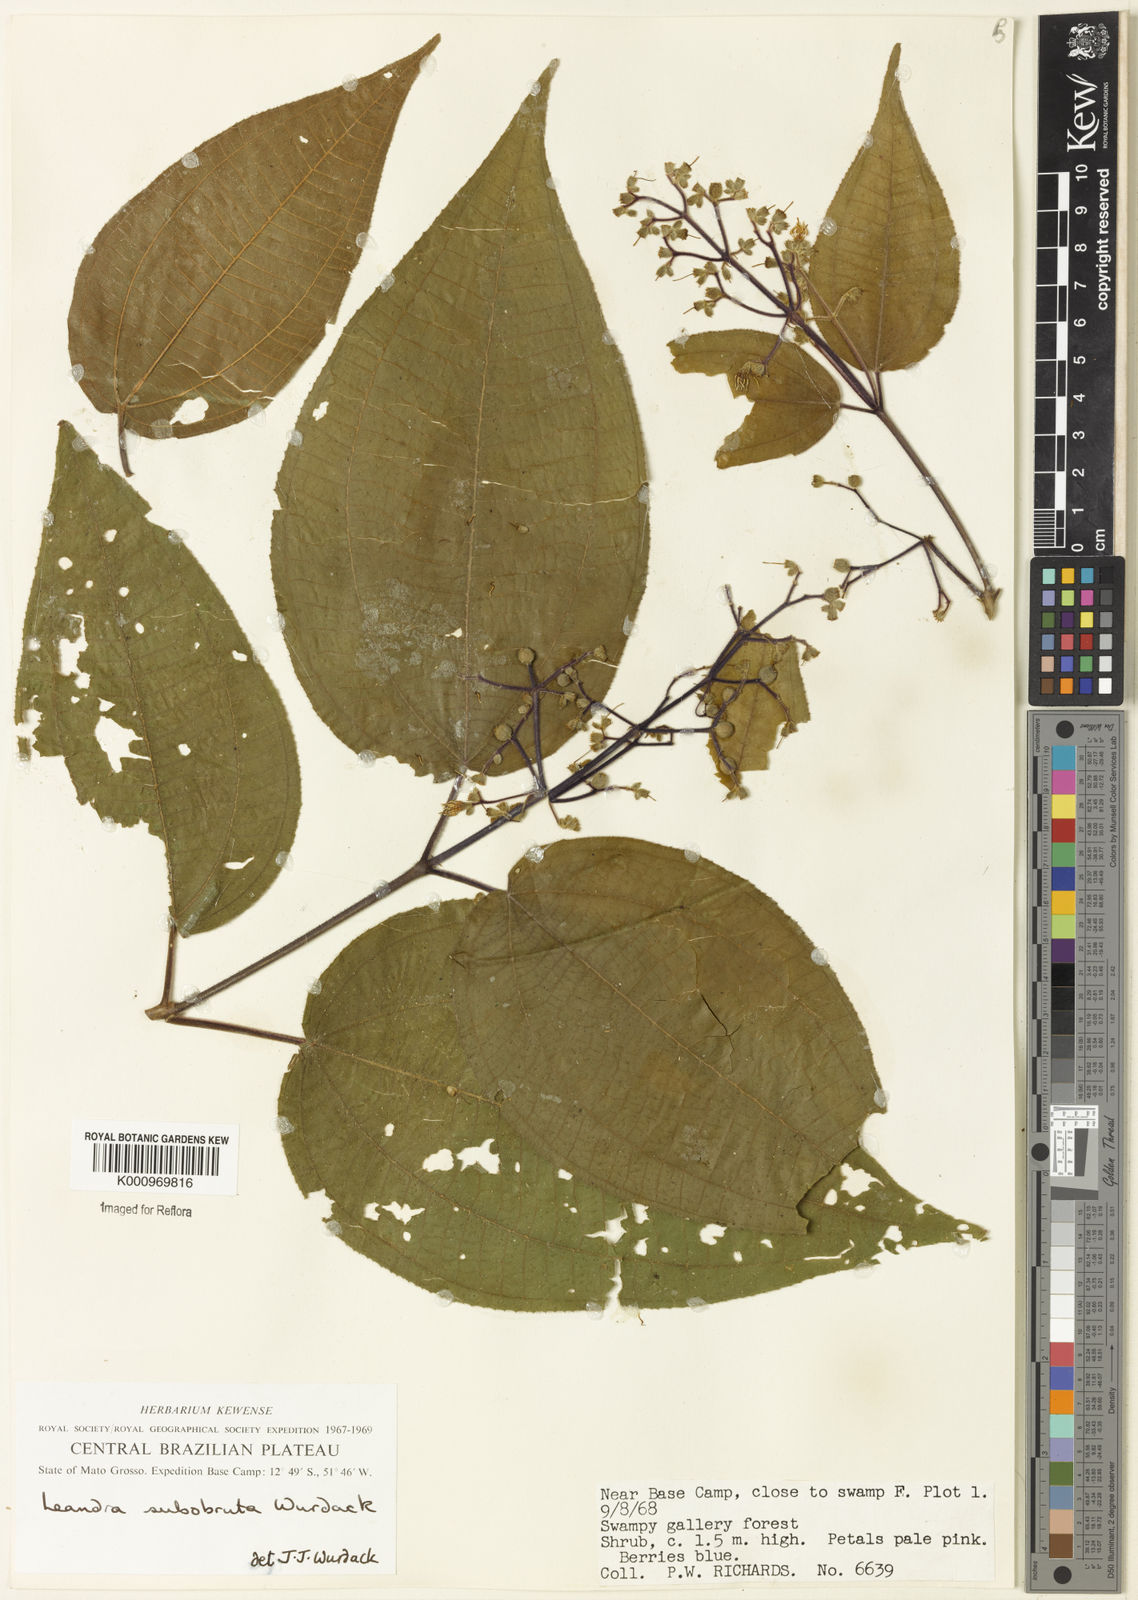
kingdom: Plantae
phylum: Tracheophyta
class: Magnoliopsida
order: Myrtales
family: Melastomataceae
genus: Miconia
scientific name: Miconia subobruta
